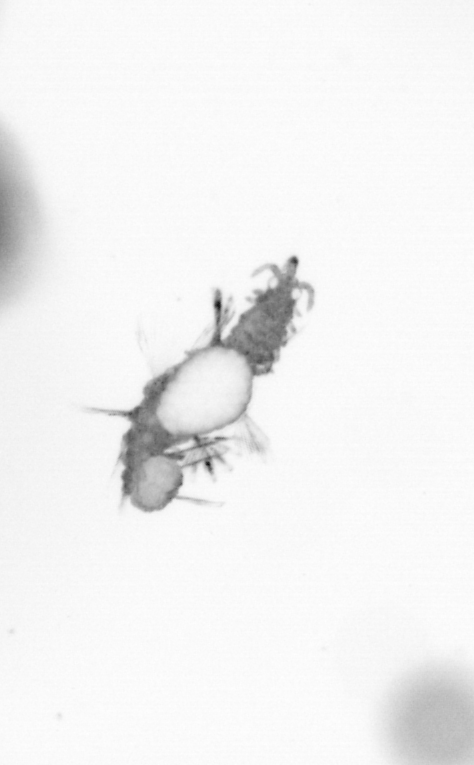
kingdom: Animalia
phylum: Annelida
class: Polychaeta
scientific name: Polychaeta
